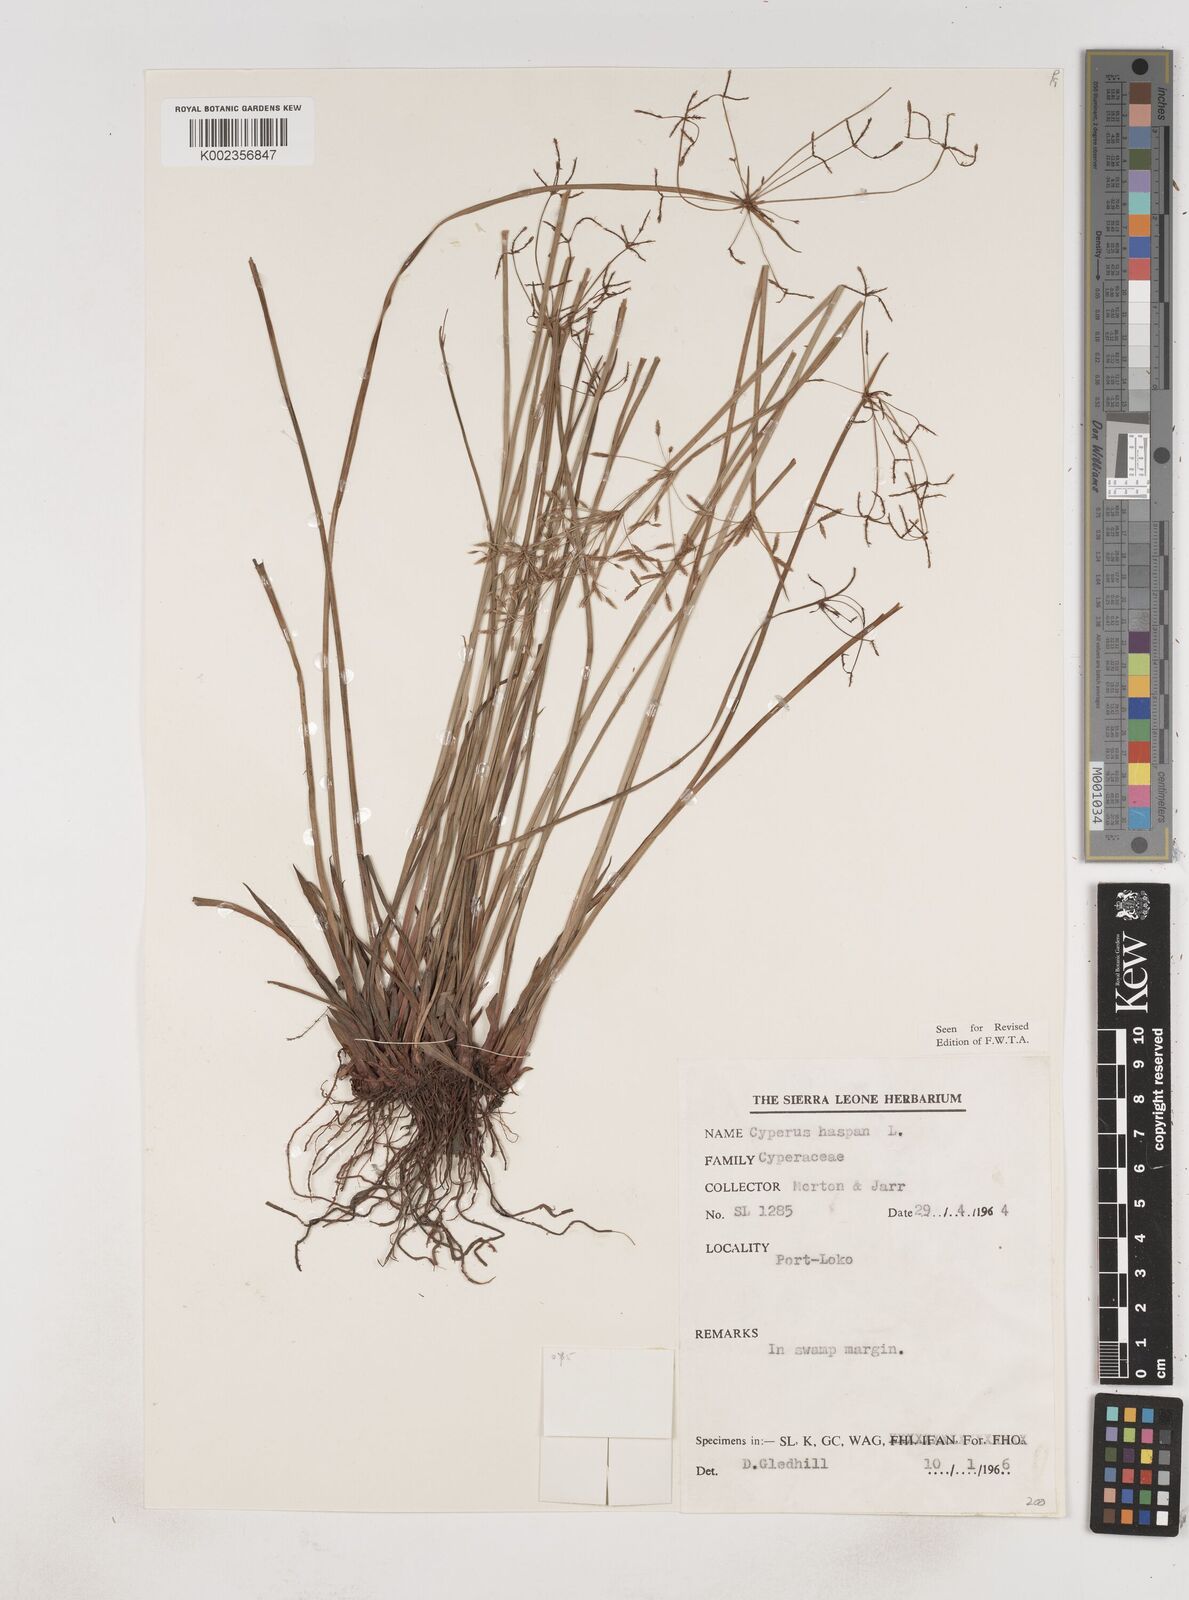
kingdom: Plantae
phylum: Tracheophyta
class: Liliopsida
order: Poales
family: Cyperaceae
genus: Cyperus
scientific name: Cyperus haspan
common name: Haspan flatsedge
